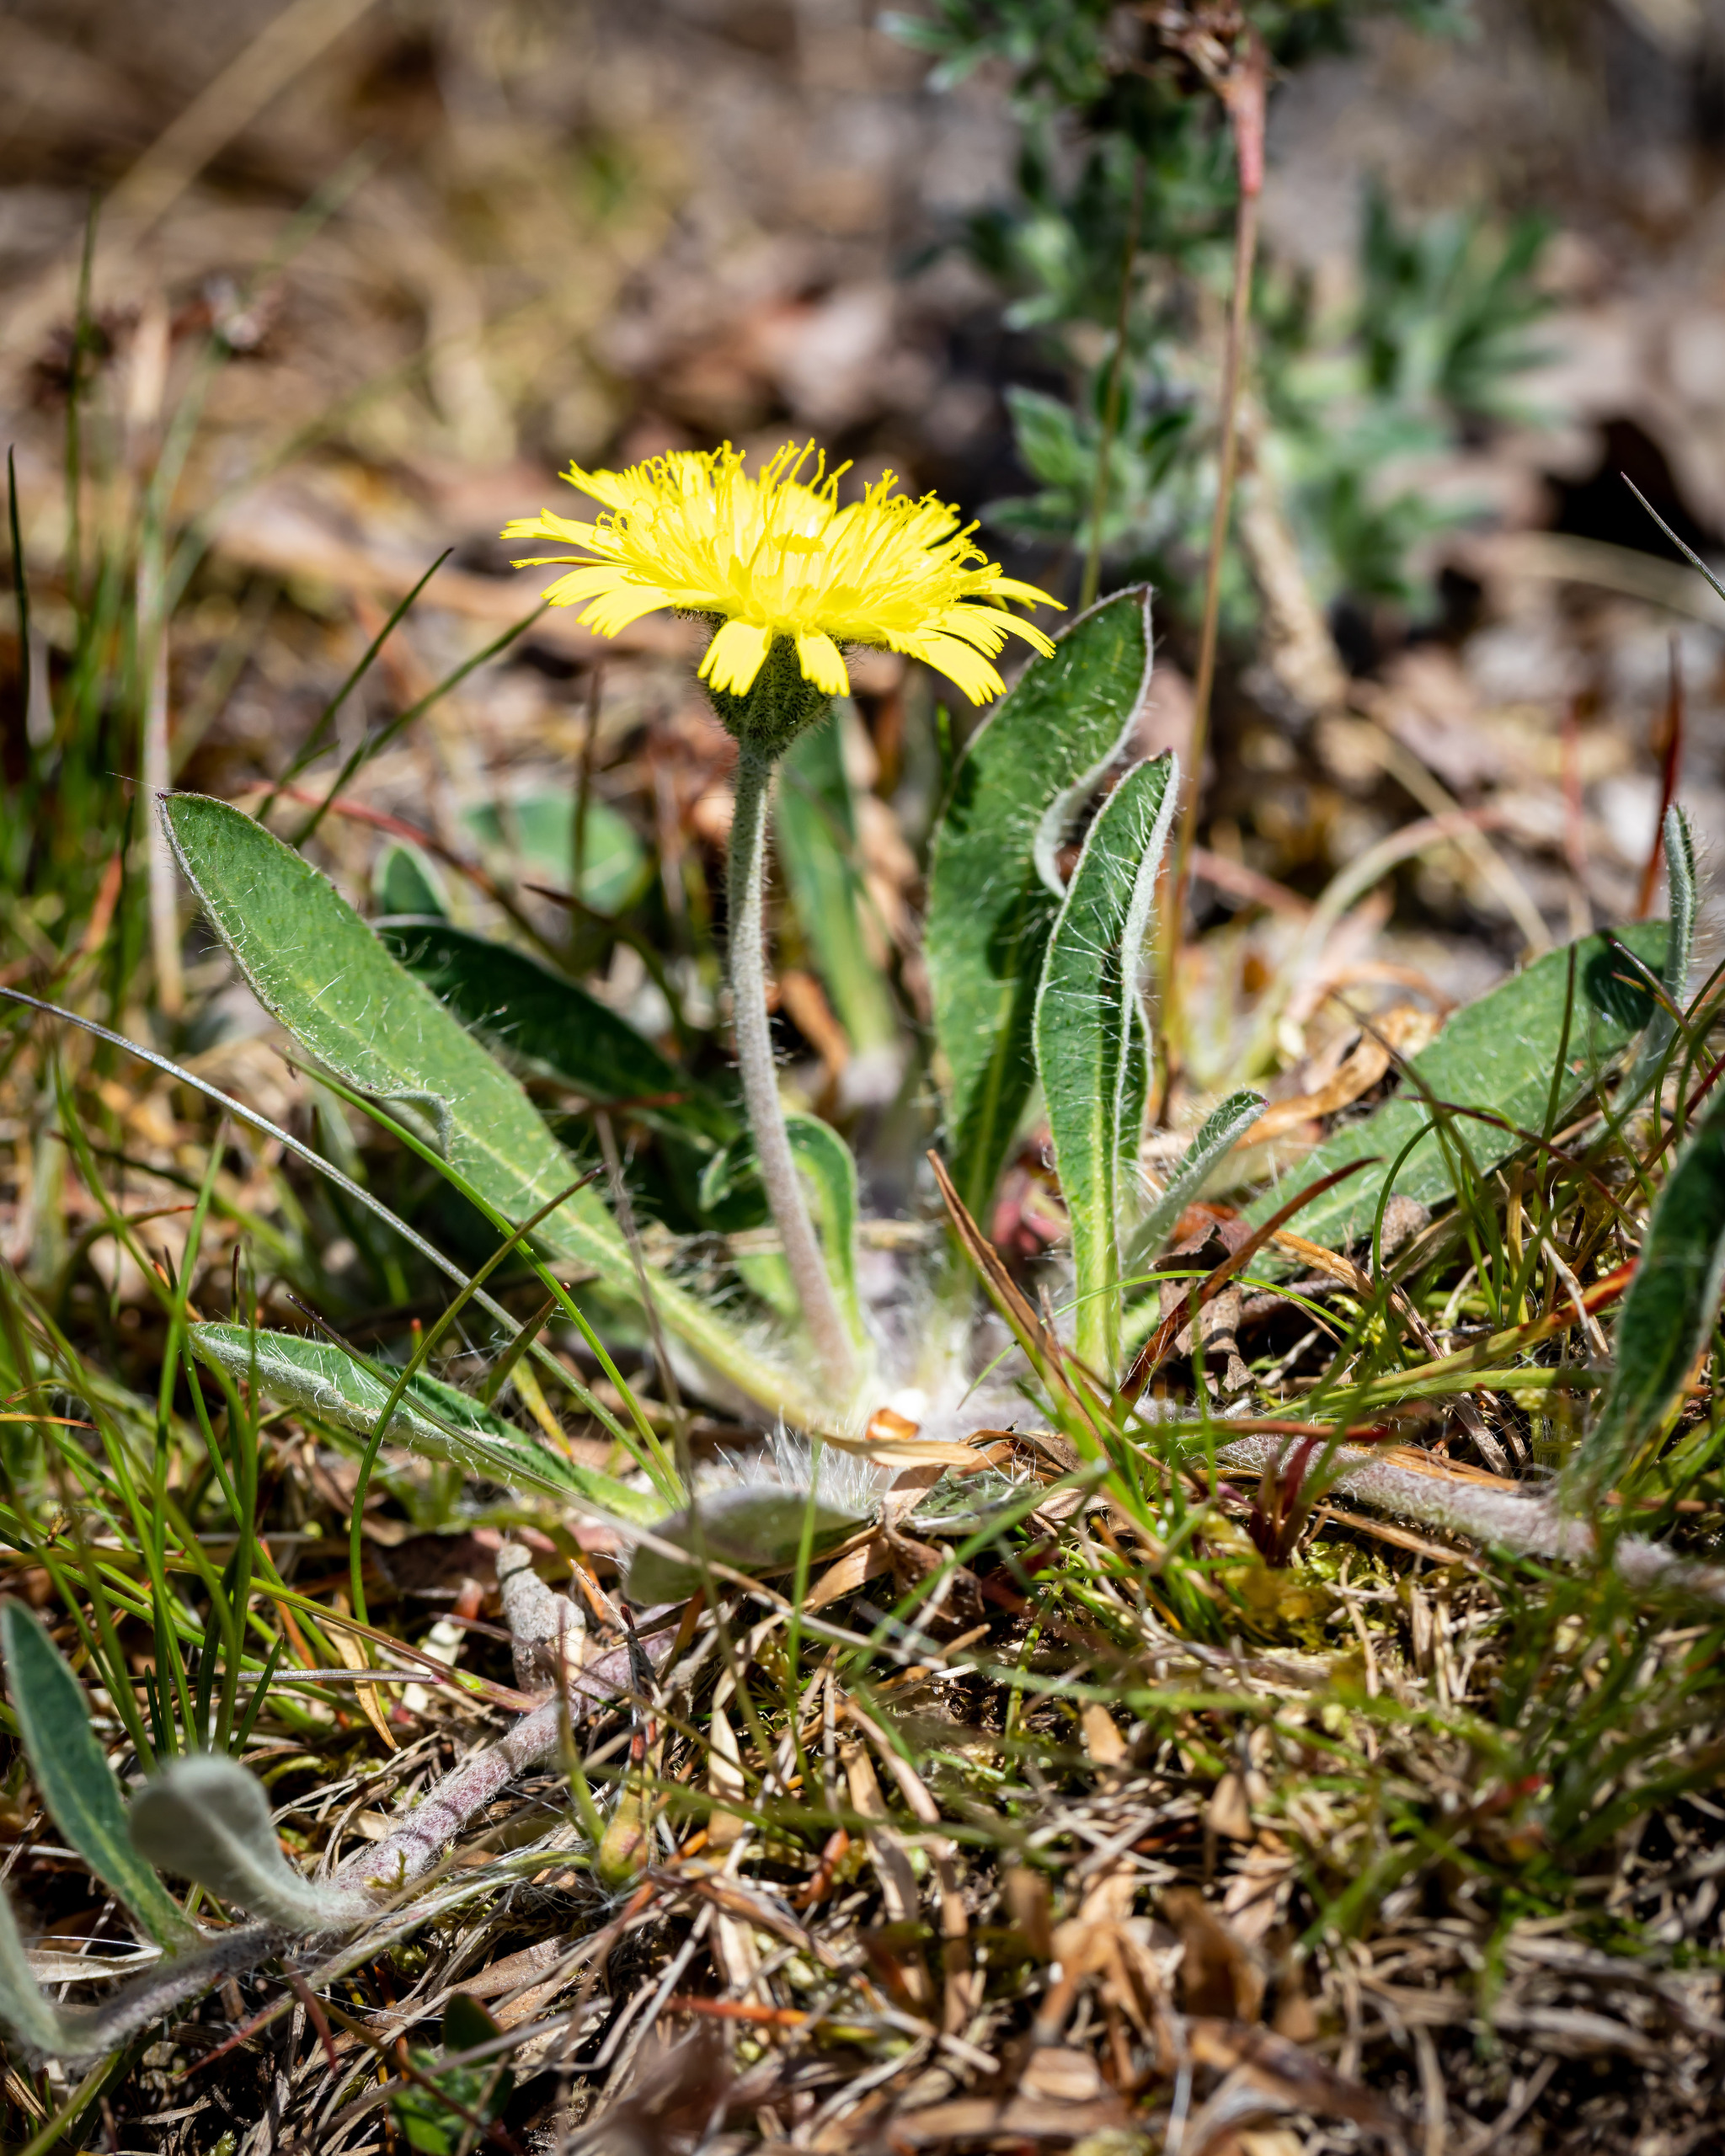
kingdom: Plantae
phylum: Tracheophyta
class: Magnoliopsida
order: Asterales
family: Asteraceae
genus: Pilosella
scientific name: Pilosella officinarum
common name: Håret høgeurt
